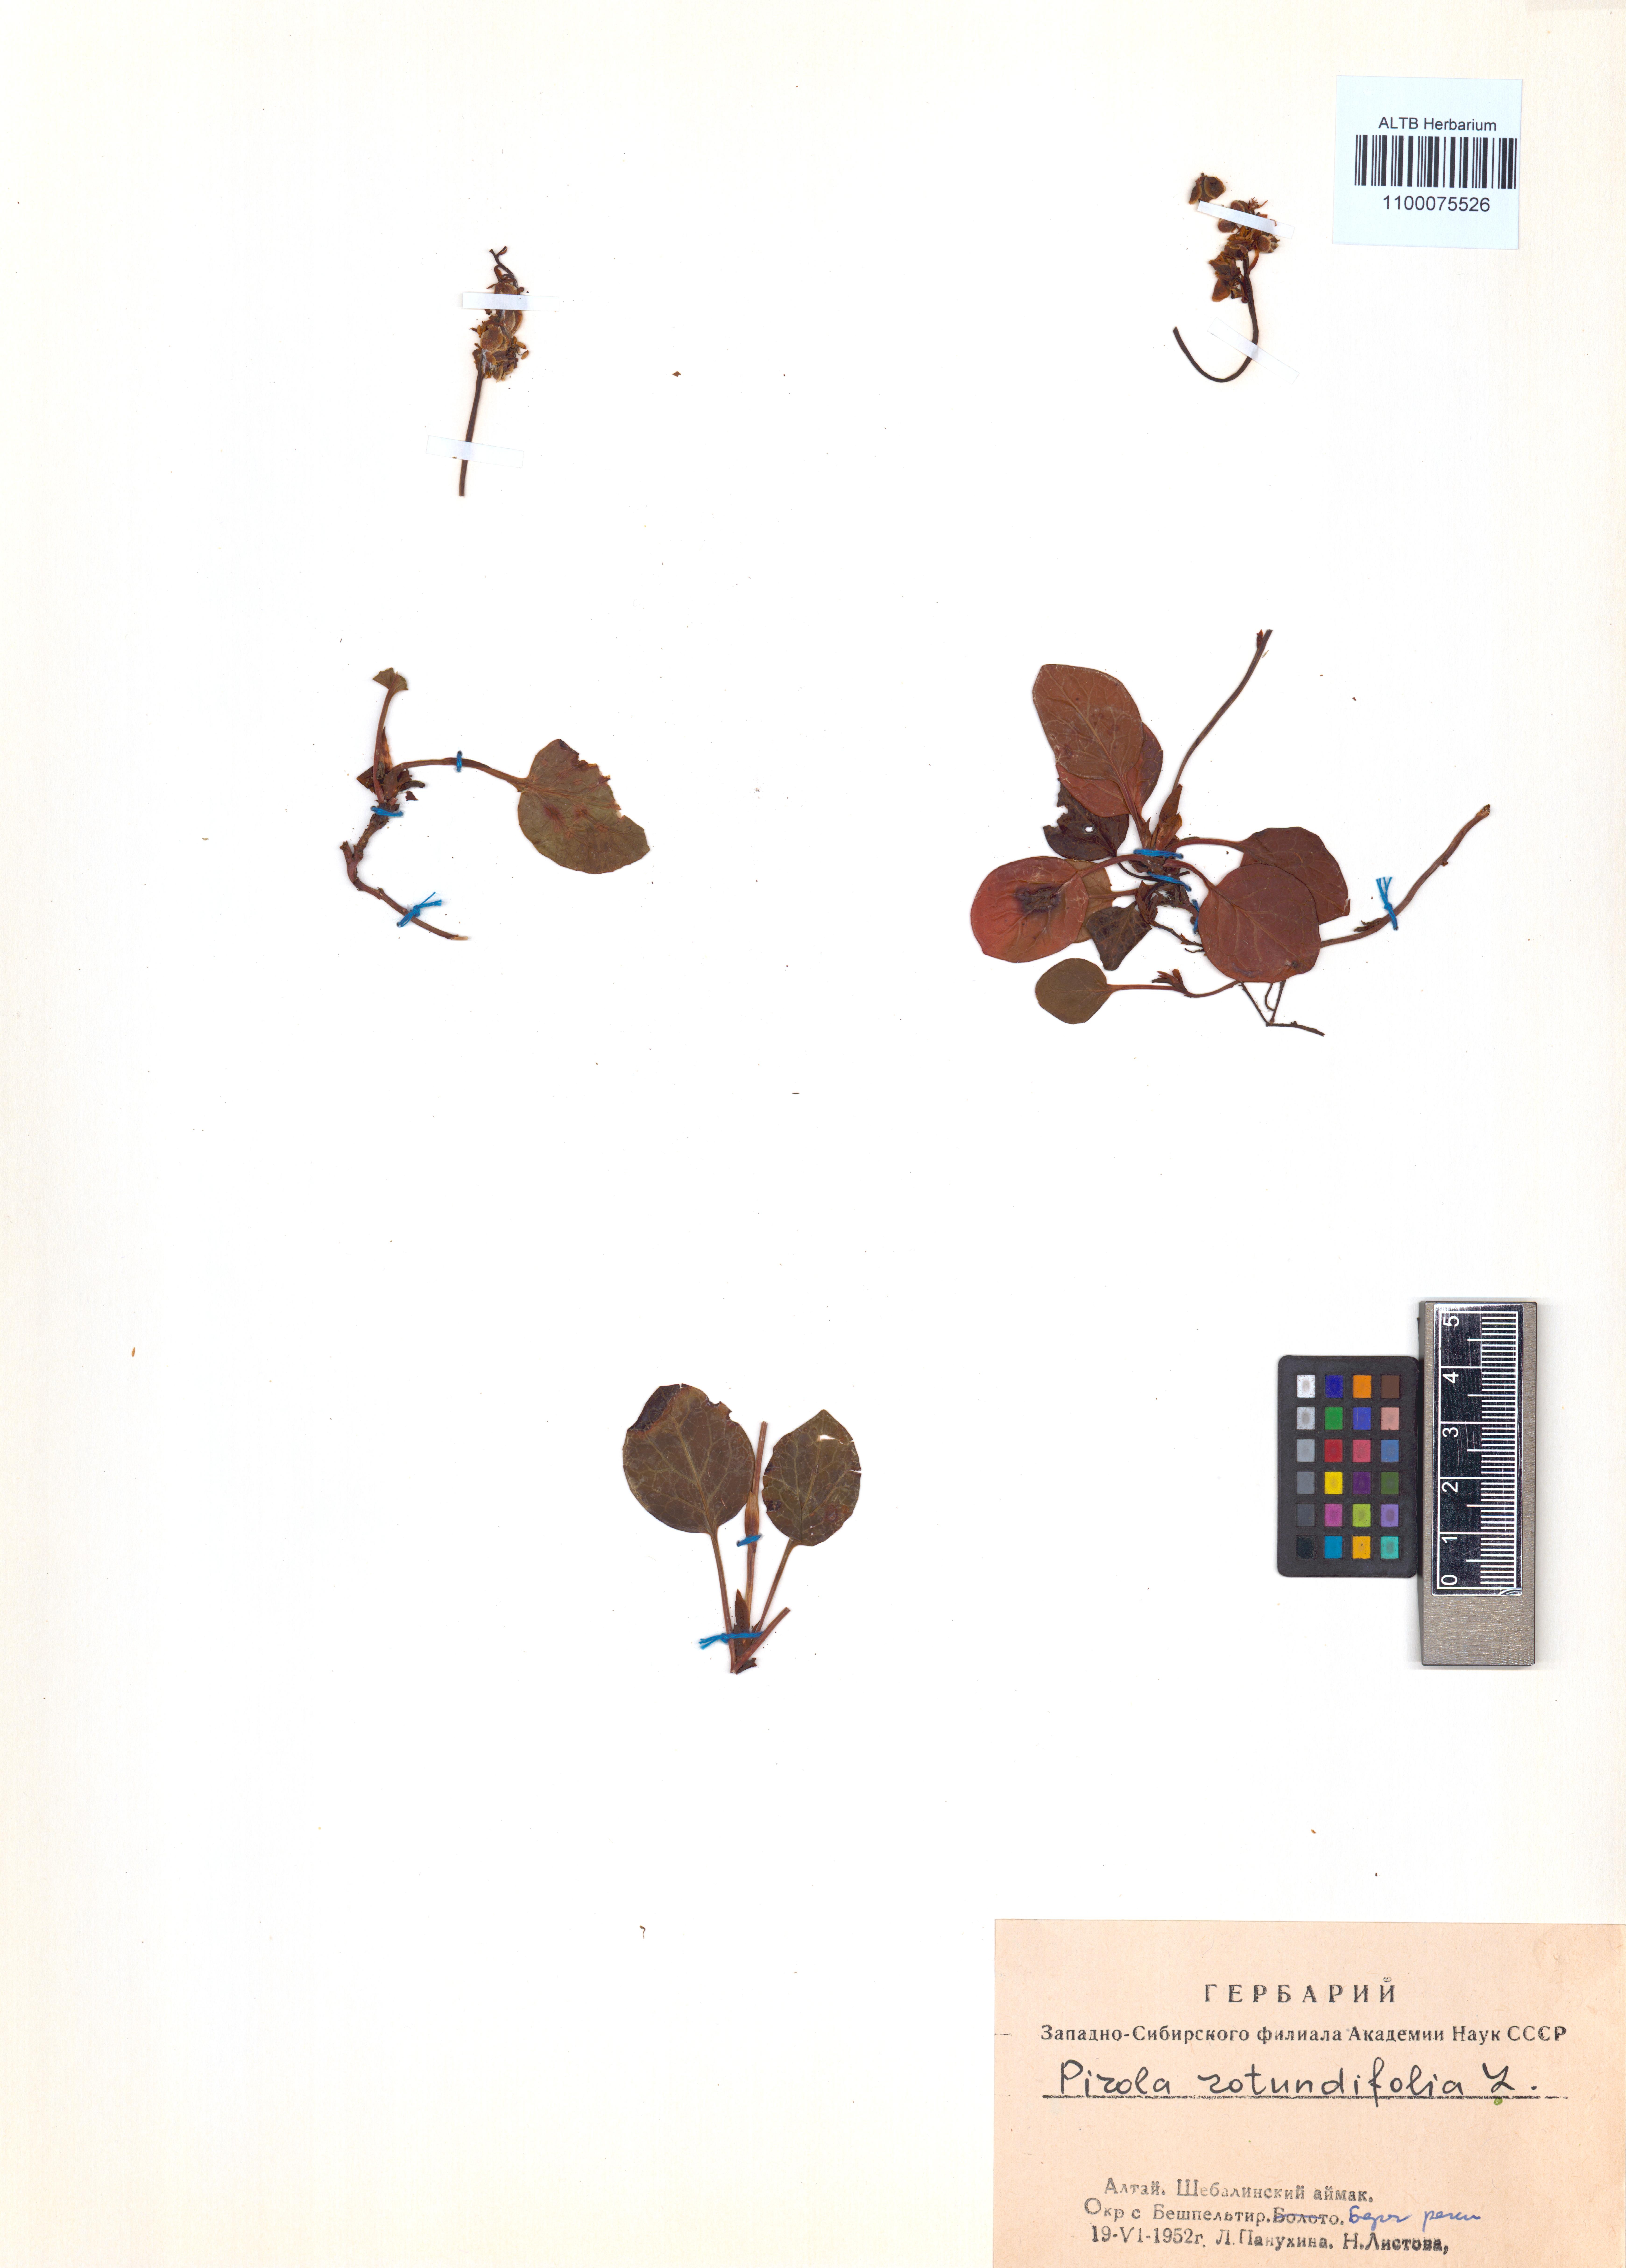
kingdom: Plantae
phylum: Tracheophyta
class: Magnoliopsida
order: Ericales
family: Ericaceae
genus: Pyrola
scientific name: Pyrola rotundifolia
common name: Round-leaved wintergreen
